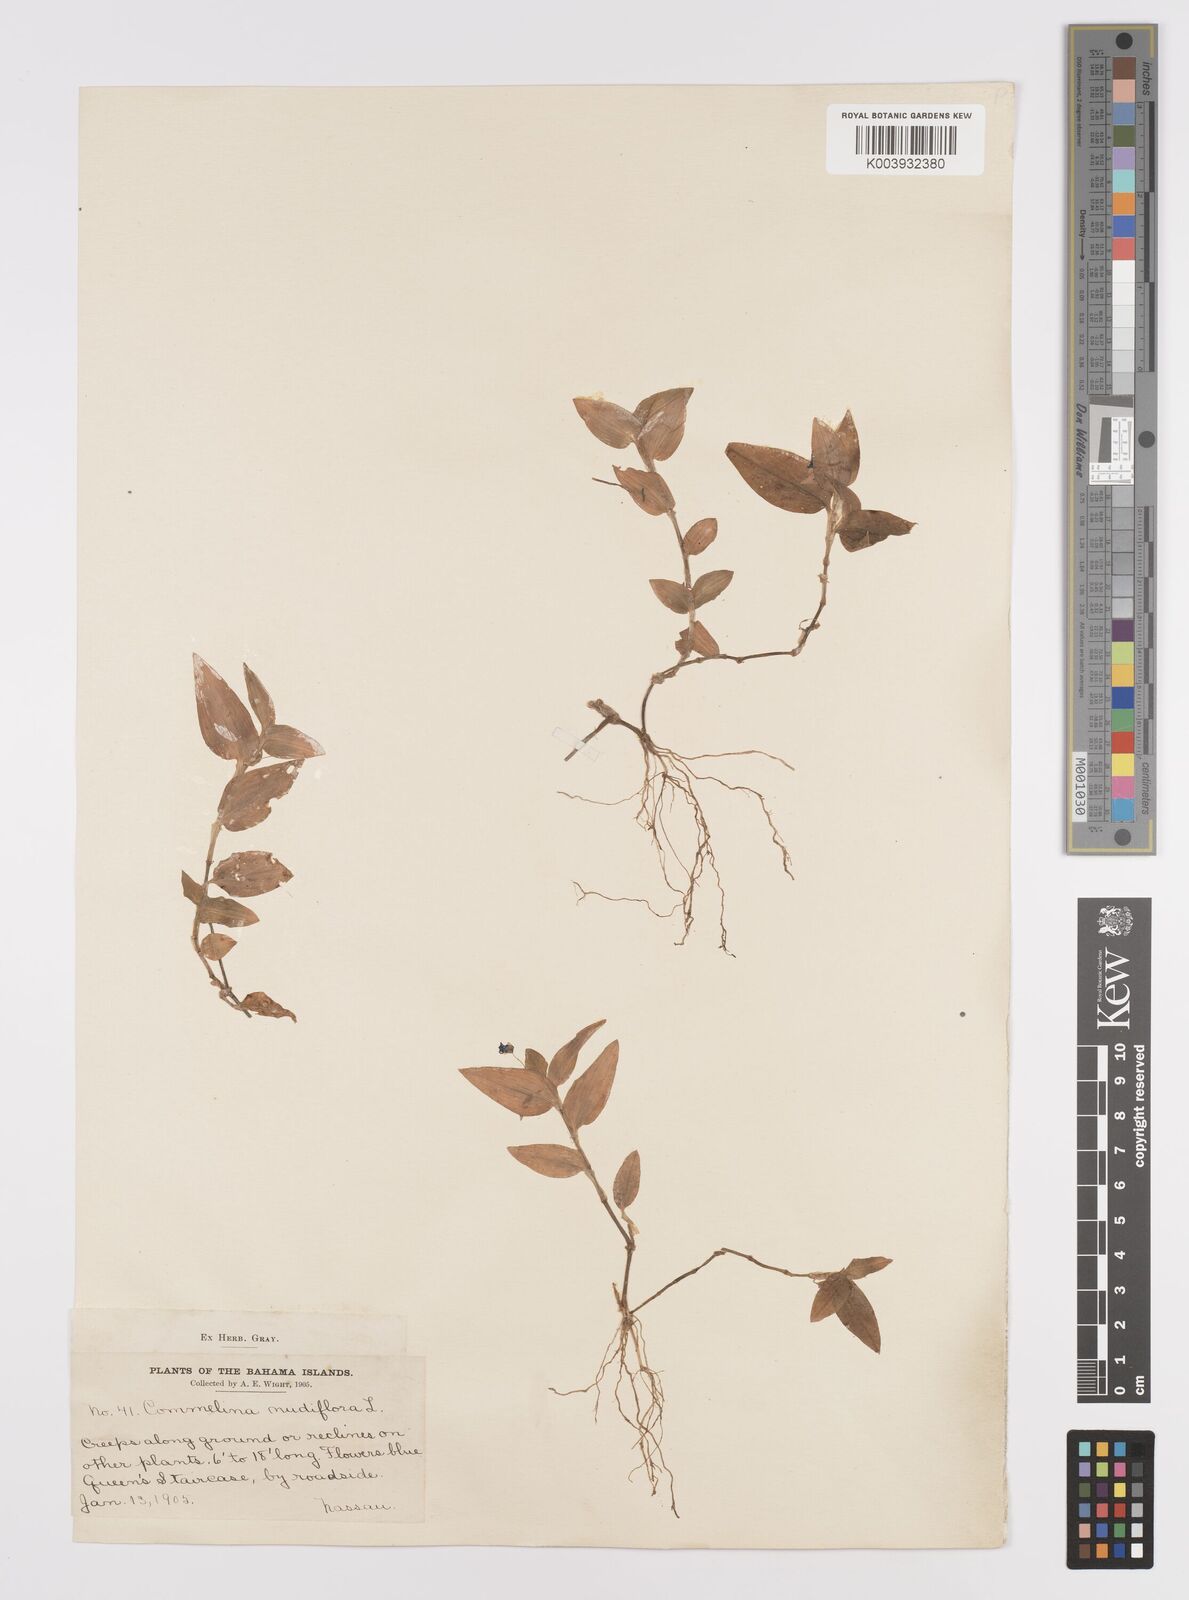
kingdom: Plantae
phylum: Tracheophyta
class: Liliopsida
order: Commelinales
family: Commelinaceae
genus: Commelina
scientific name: Commelina
